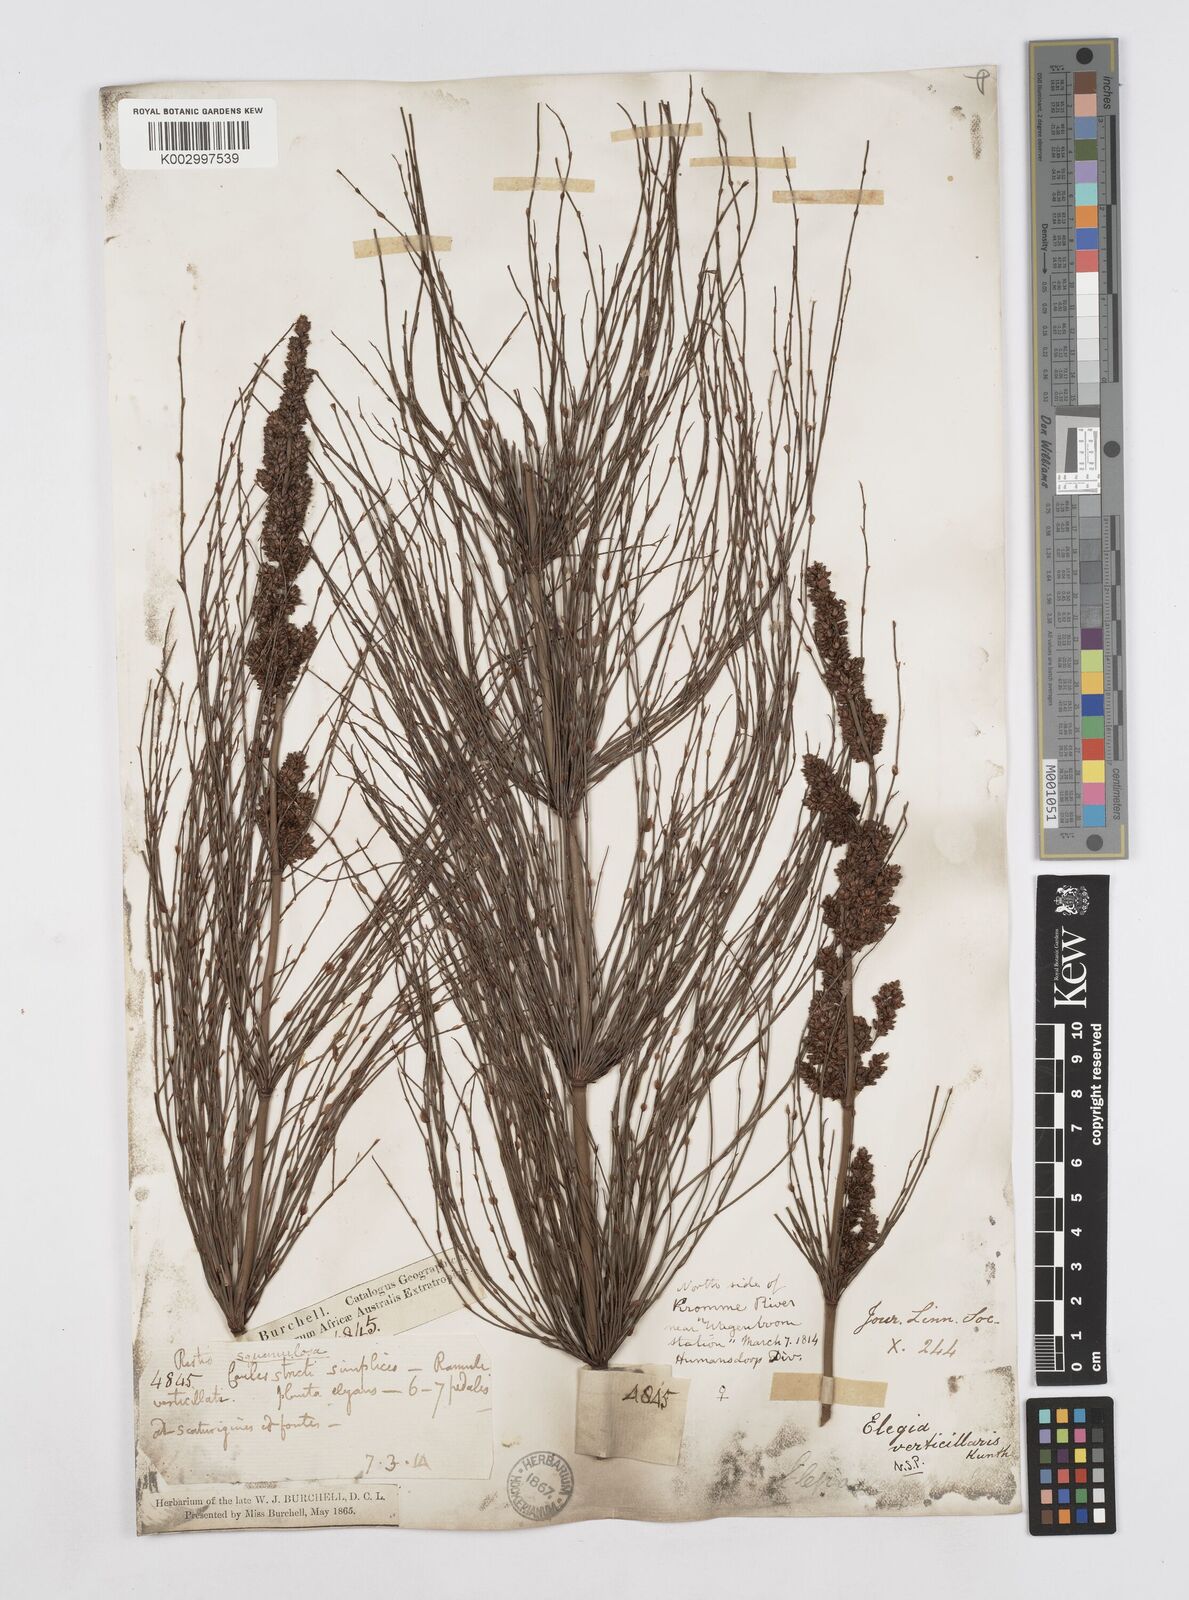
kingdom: Plantae
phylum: Tracheophyta
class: Liliopsida
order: Poales
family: Restionaceae
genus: Elegia
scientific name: Elegia capensis
